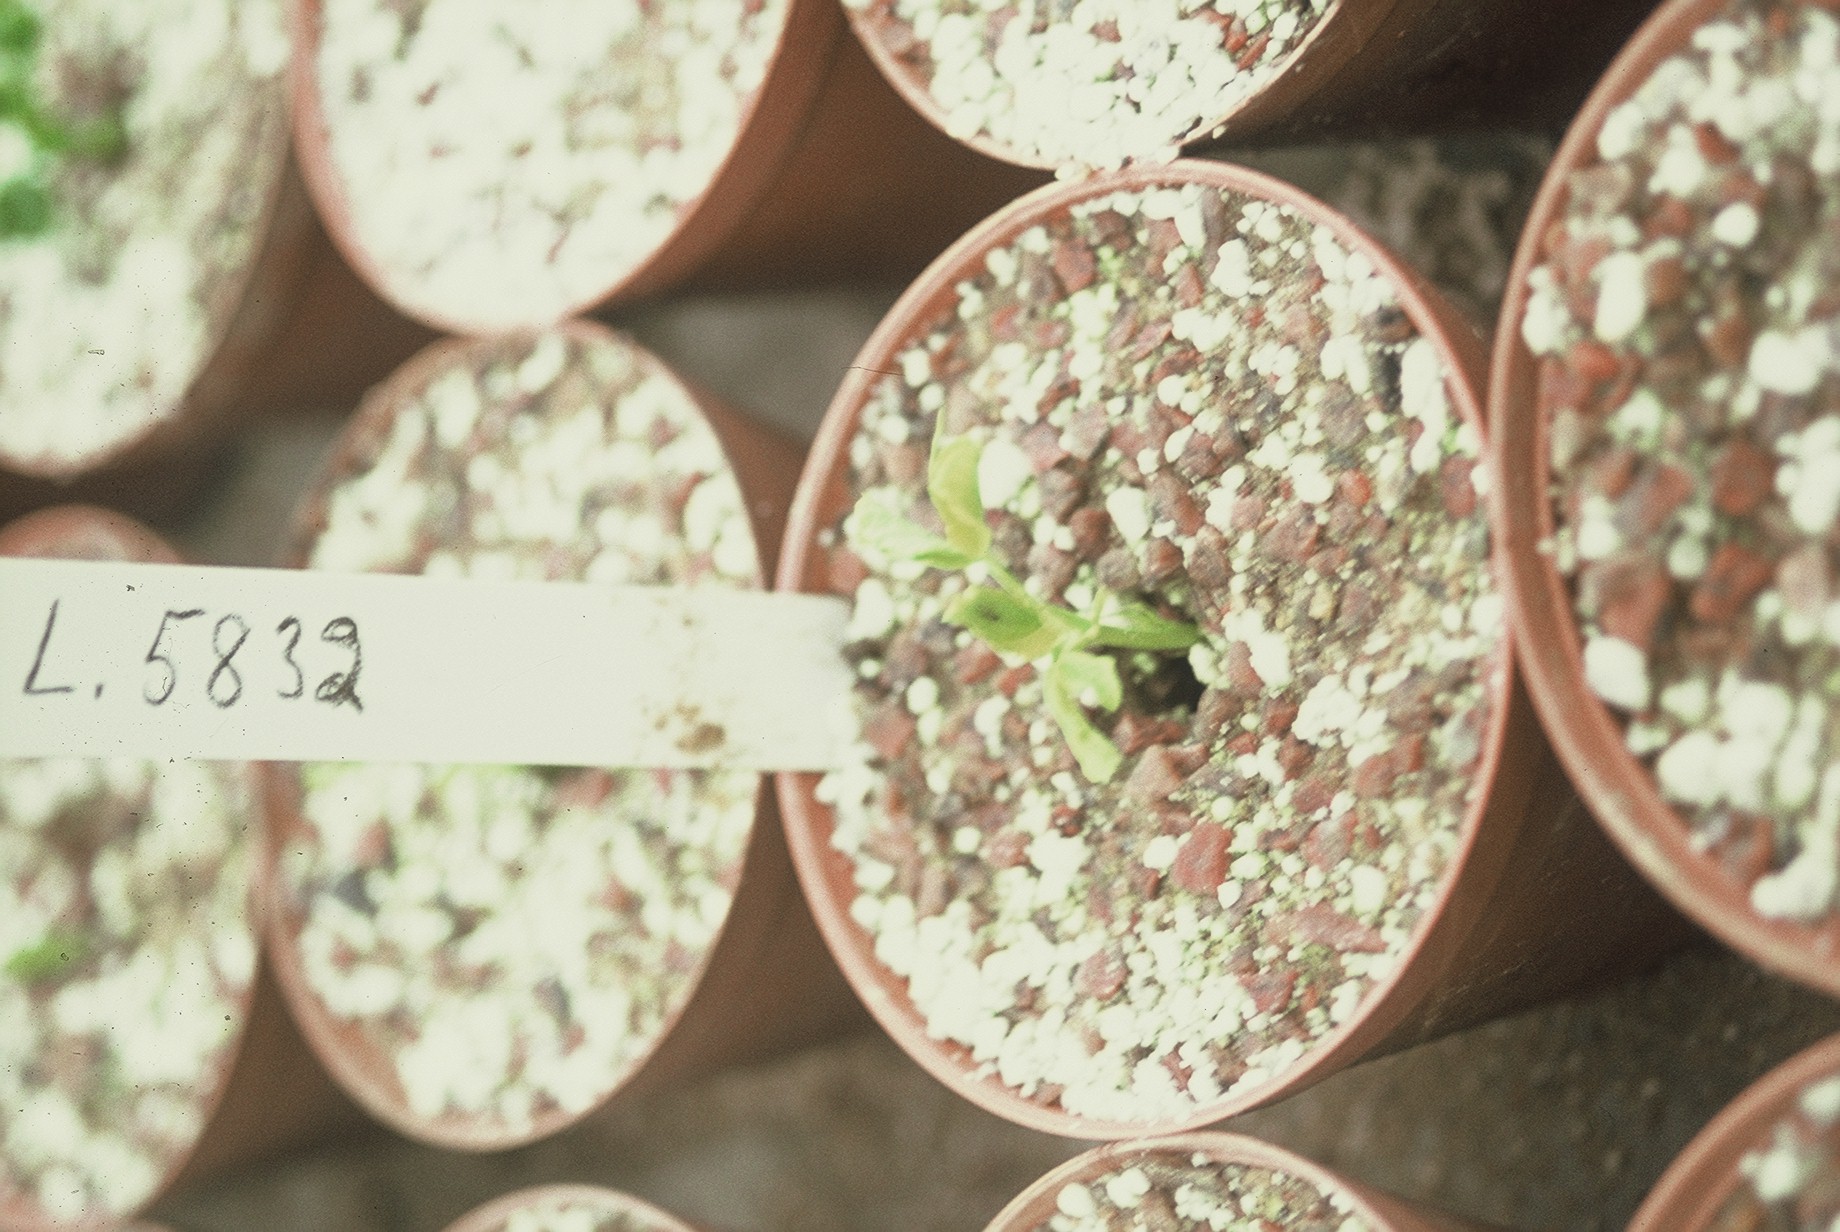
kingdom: Plantae
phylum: Tracheophyta
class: Magnoliopsida
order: Fabales
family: Fabaceae
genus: Lathyrus
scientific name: Lathyrus oleraceus
